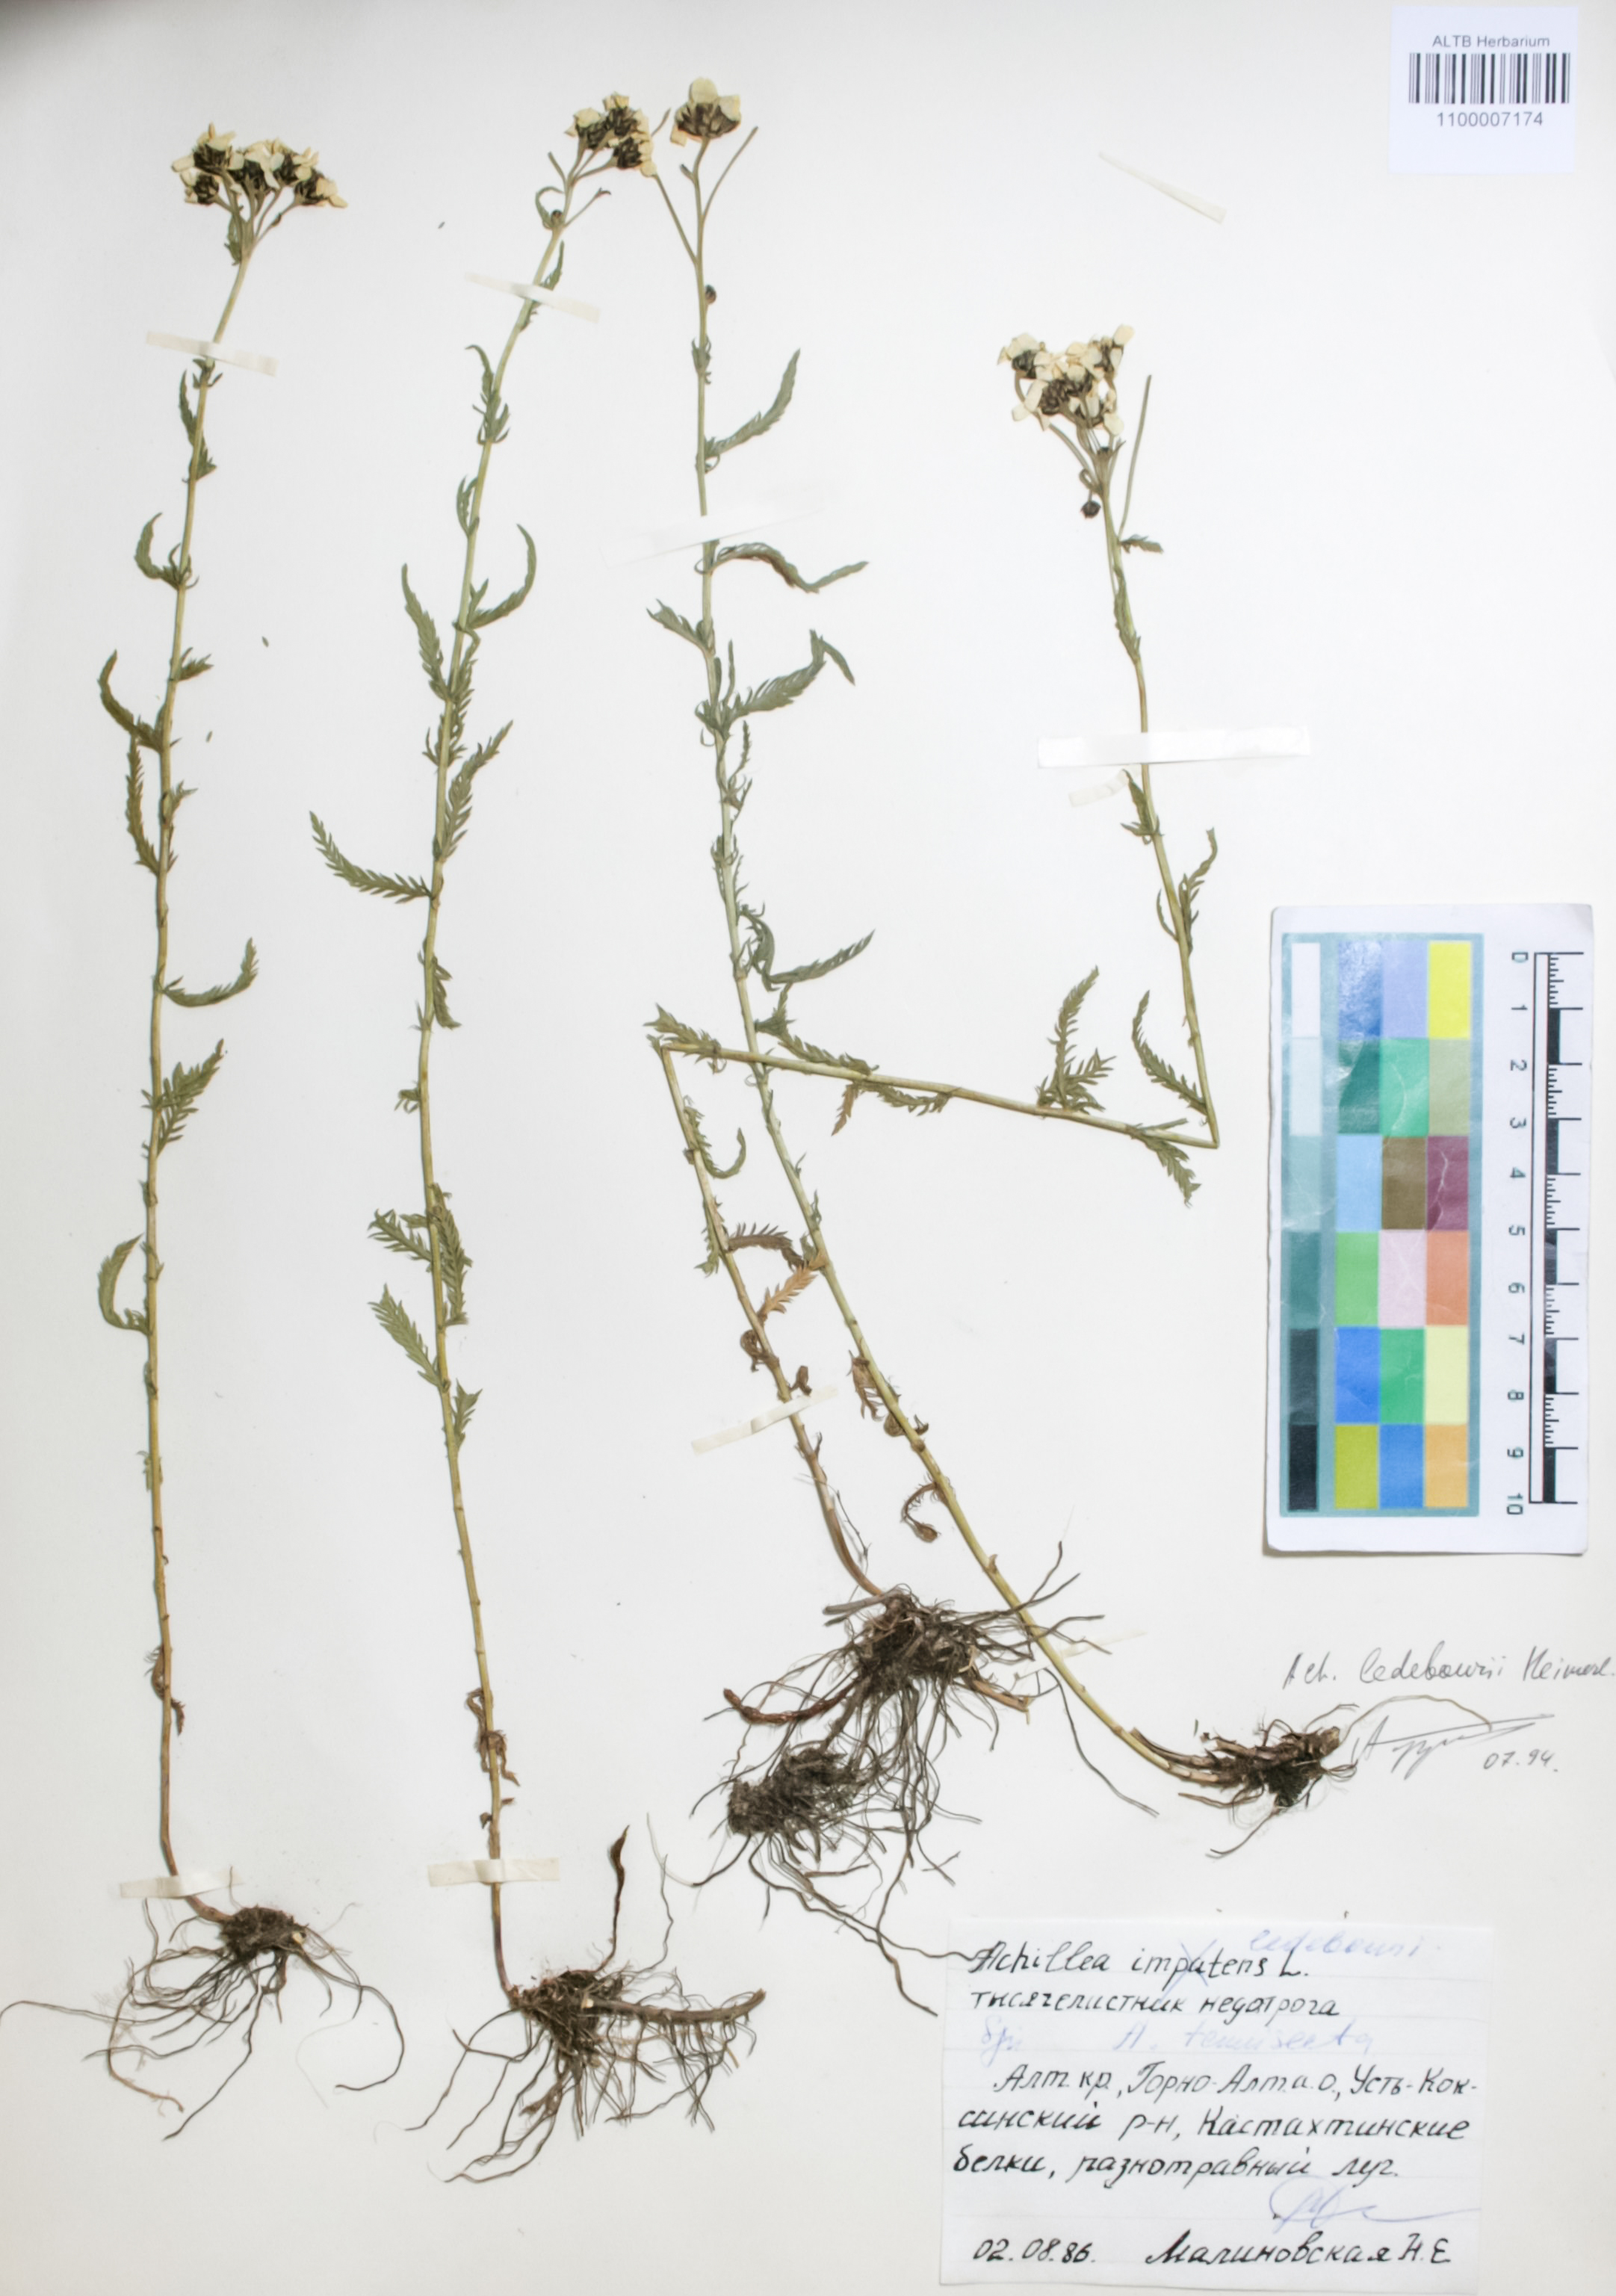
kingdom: Plantae
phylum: Tracheophyta
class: Magnoliopsida
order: Asterales
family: Asteraceae
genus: Achillea
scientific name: Achillea ledebourii
